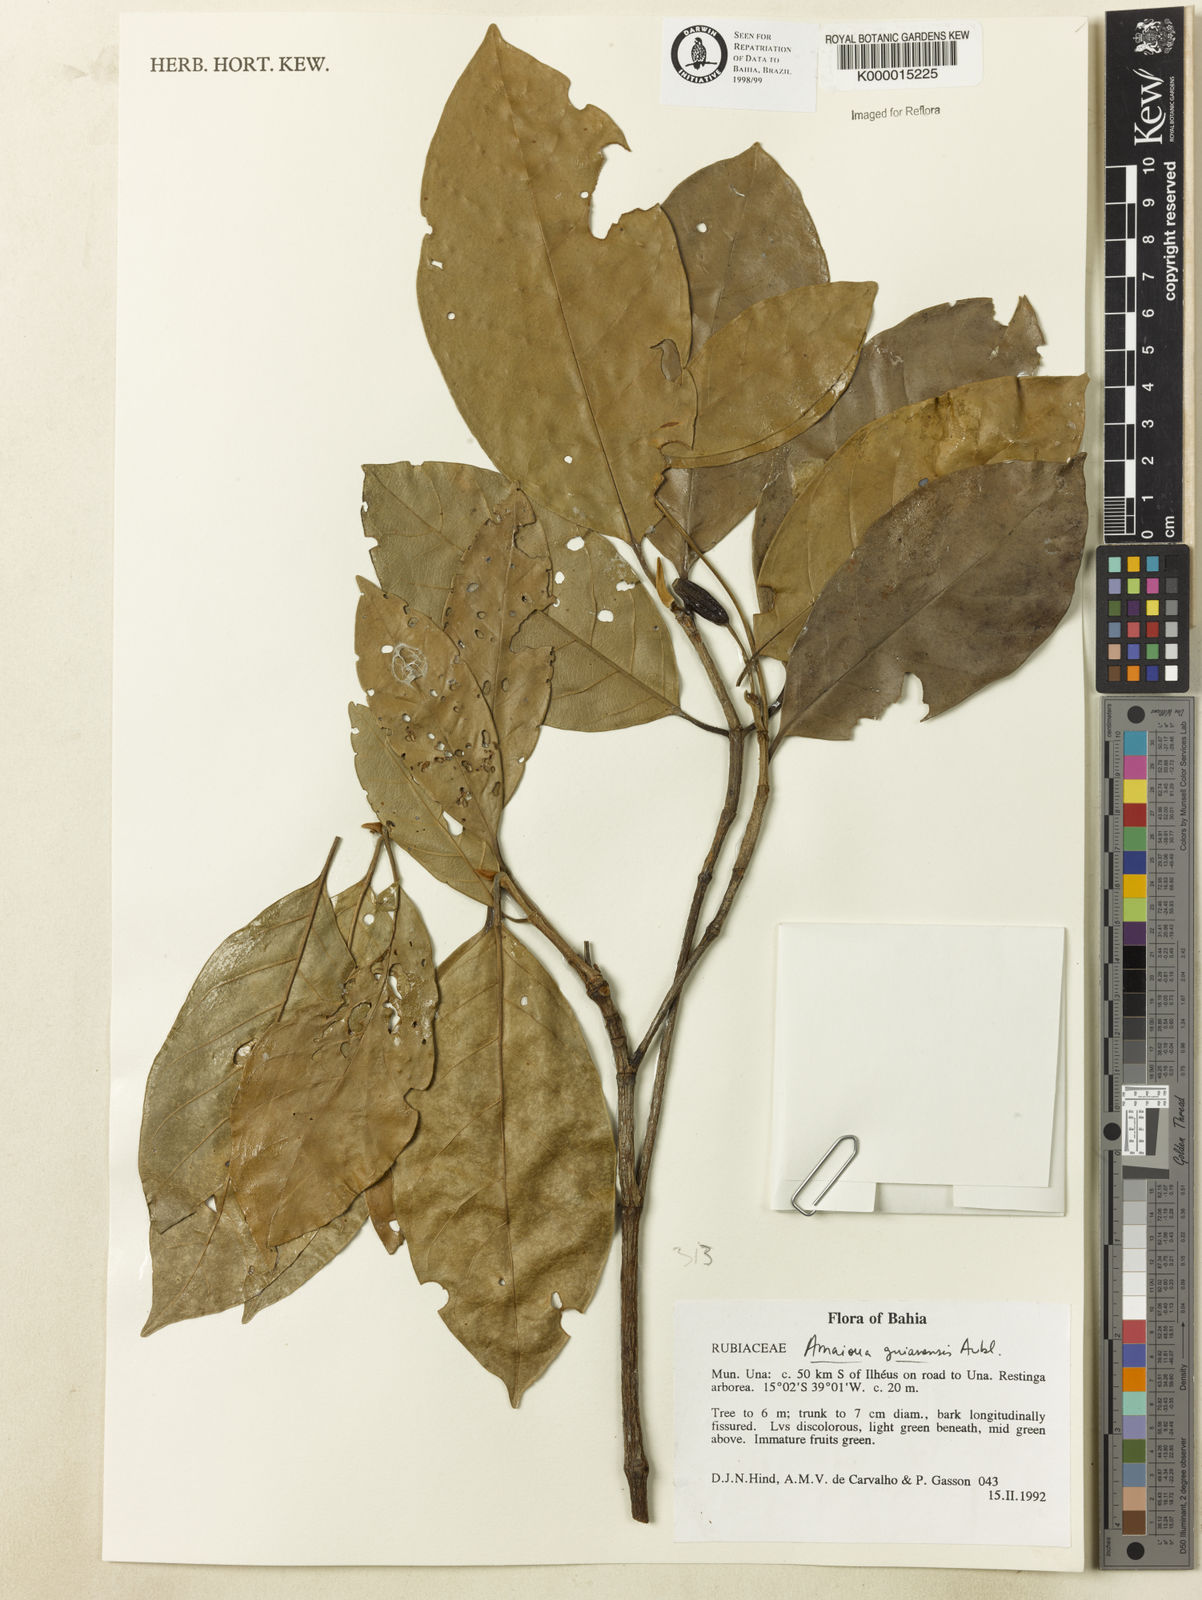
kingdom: Plantae
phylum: Tracheophyta
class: Magnoliopsida
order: Gentianales
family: Rubiaceae
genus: Amaioua
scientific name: Amaioua guianensis
